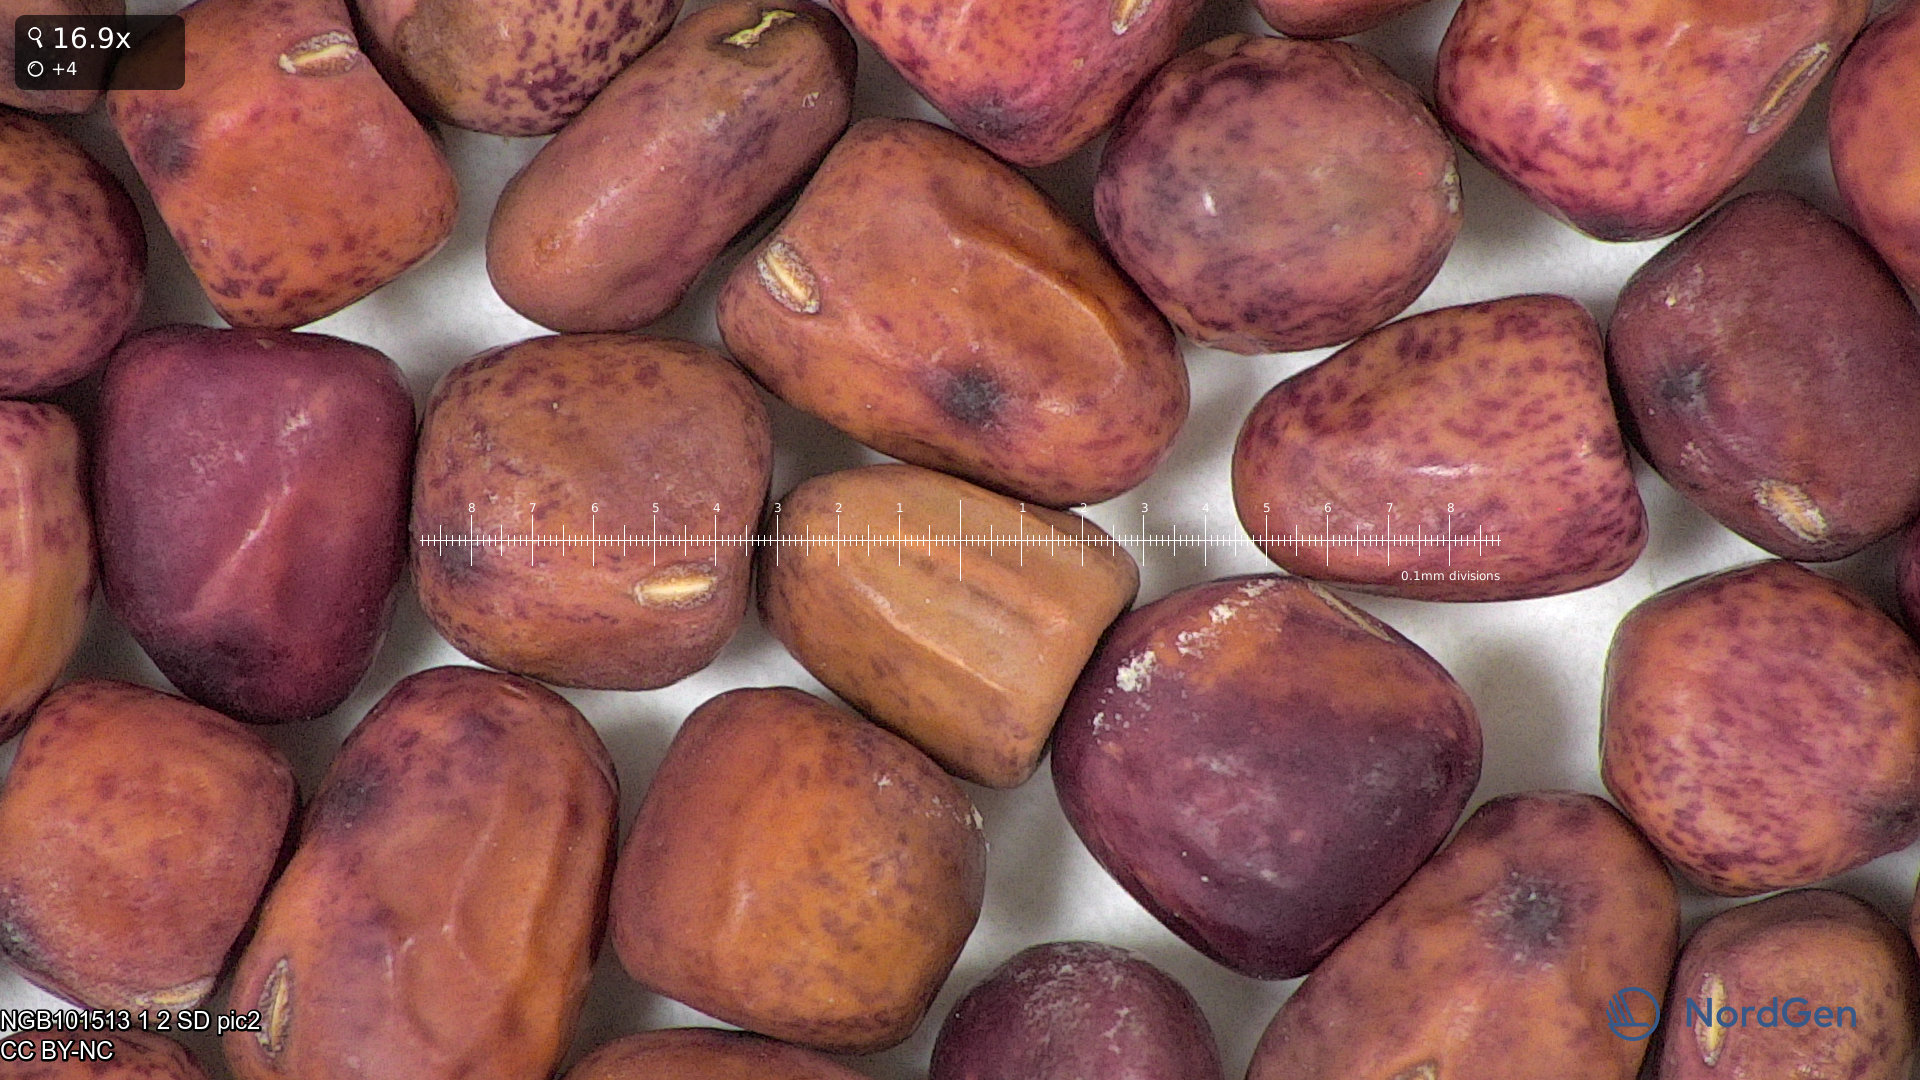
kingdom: Plantae
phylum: Tracheophyta
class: Magnoliopsida
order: Fabales
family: Fabaceae
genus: Lathyrus
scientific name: Lathyrus oleraceus
